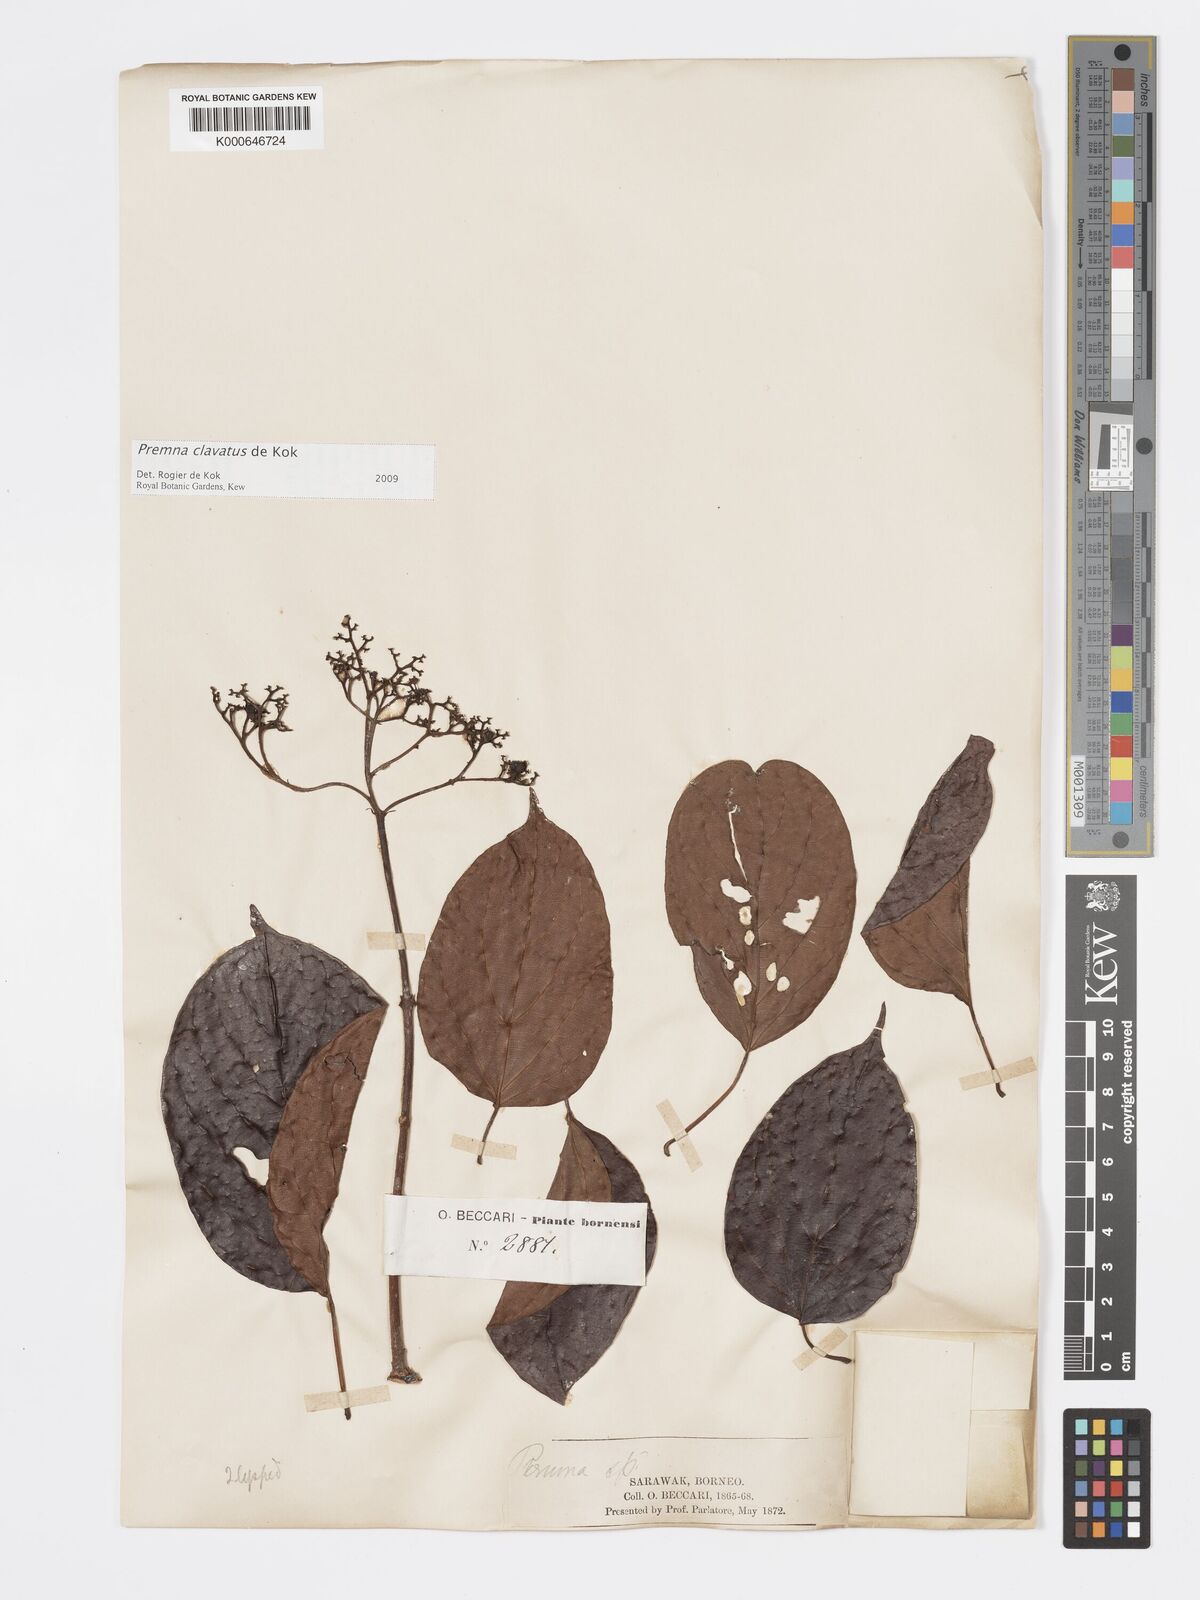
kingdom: Plantae
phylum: Tracheophyta
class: Magnoliopsida
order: Lamiales
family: Lamiaceae
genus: Premna
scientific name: Premna
